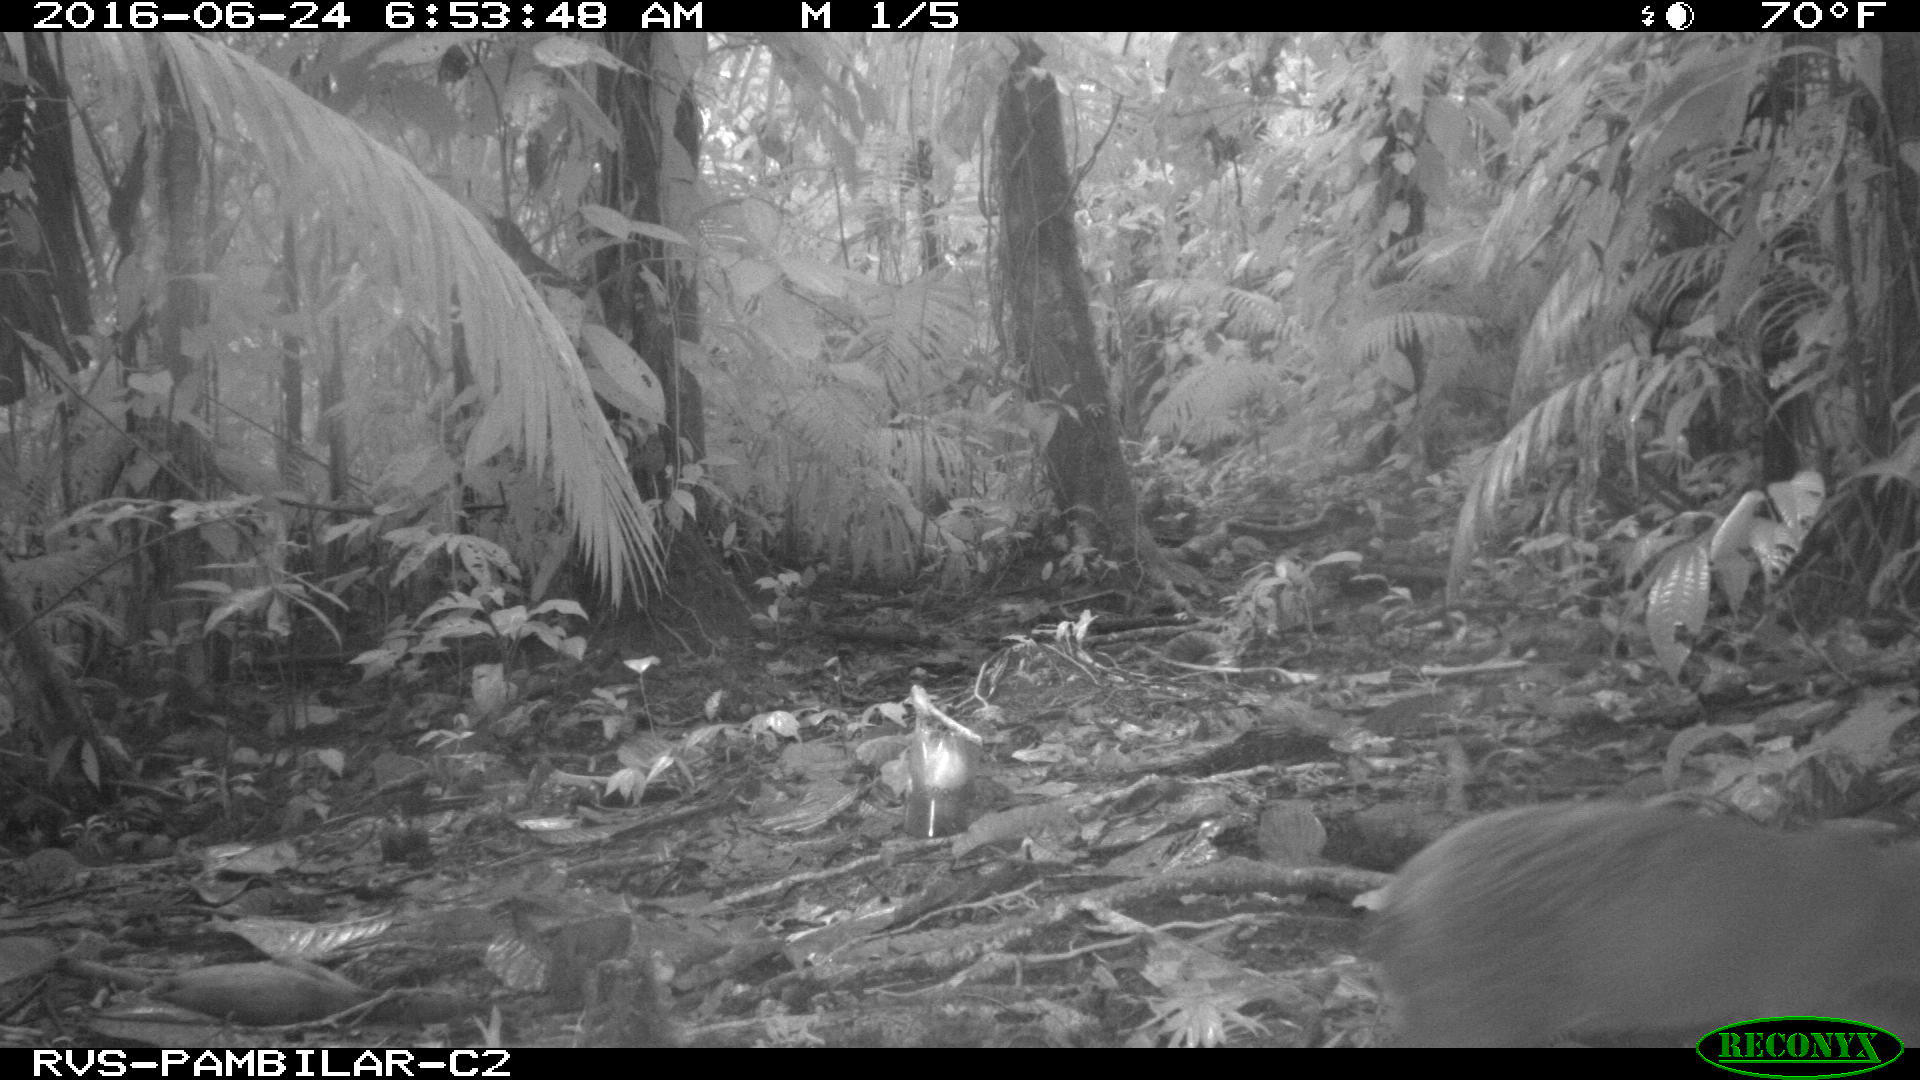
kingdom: Animalia
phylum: Chordata
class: Mammalia
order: Rodentia
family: Dasyproctidae
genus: Dasyprocta
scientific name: Dasyprocta punctata
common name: Central american agouti
